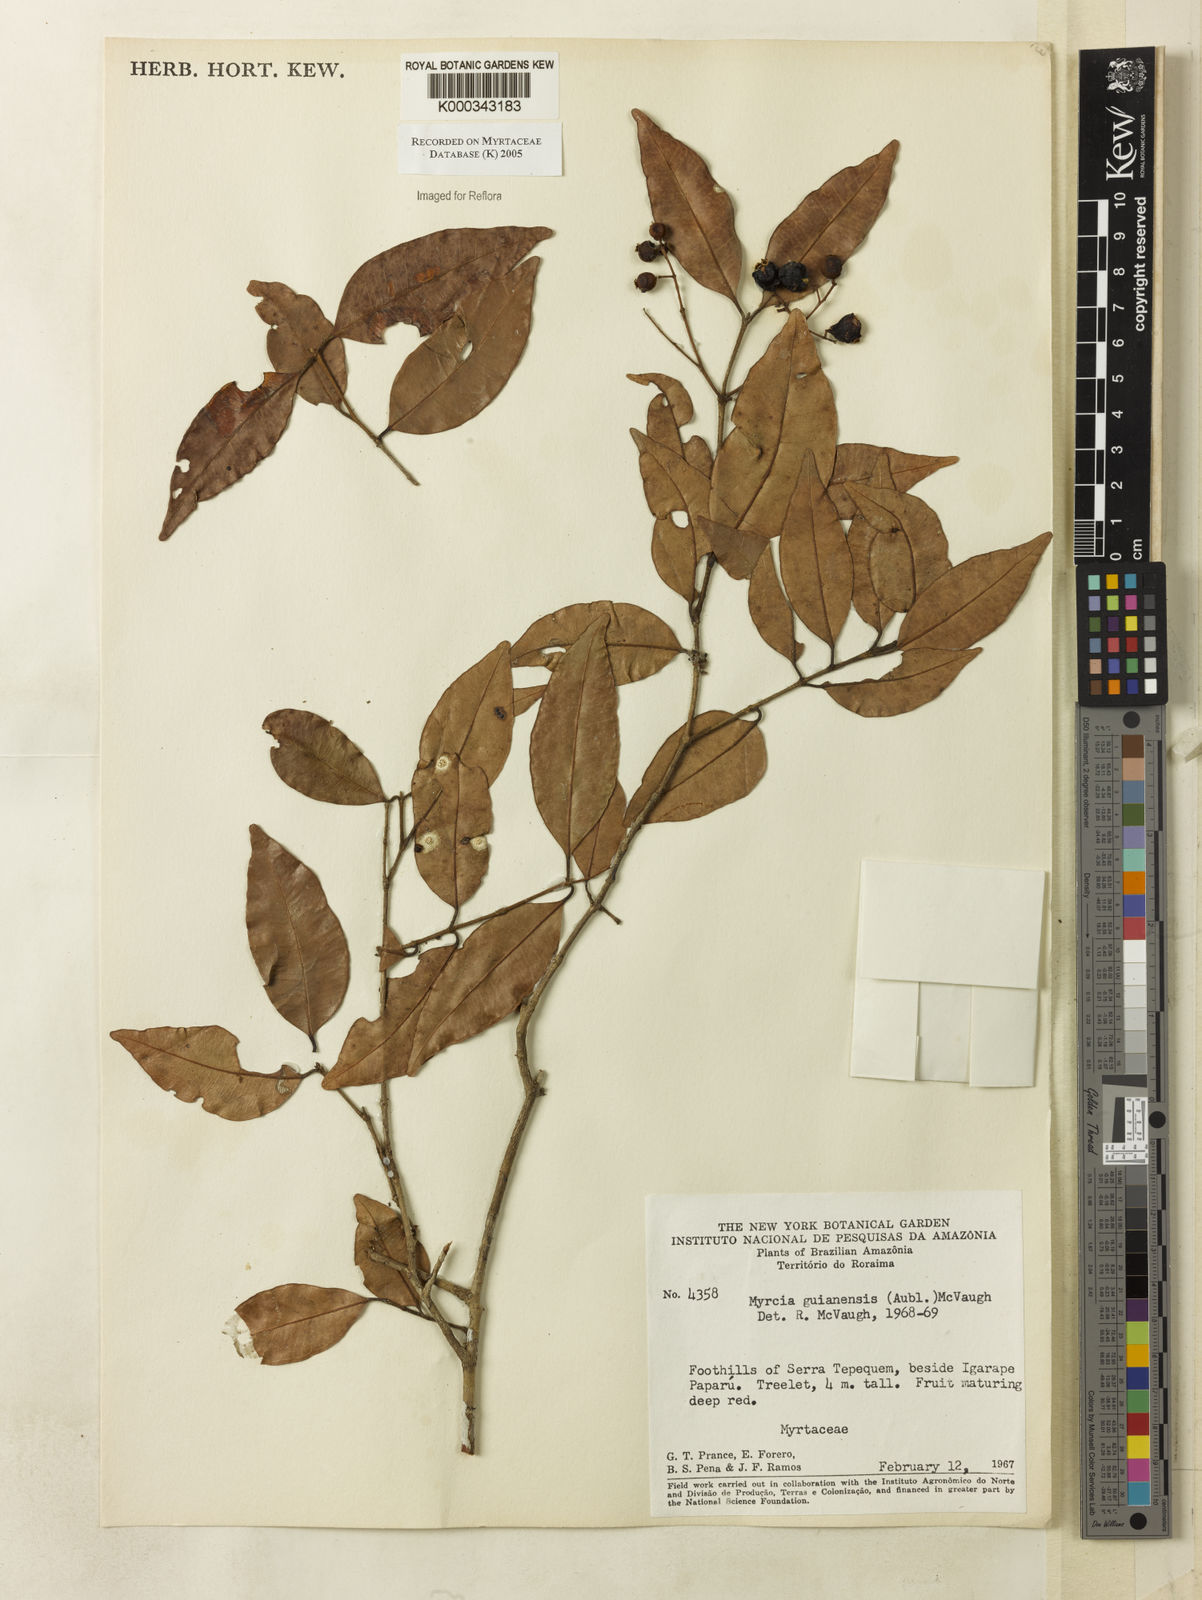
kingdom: Plantae
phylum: Tracheophyta
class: Magnoliopsida
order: Myrtales
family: Myrtaceae
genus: Myrcia
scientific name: Myrcia guianensis
